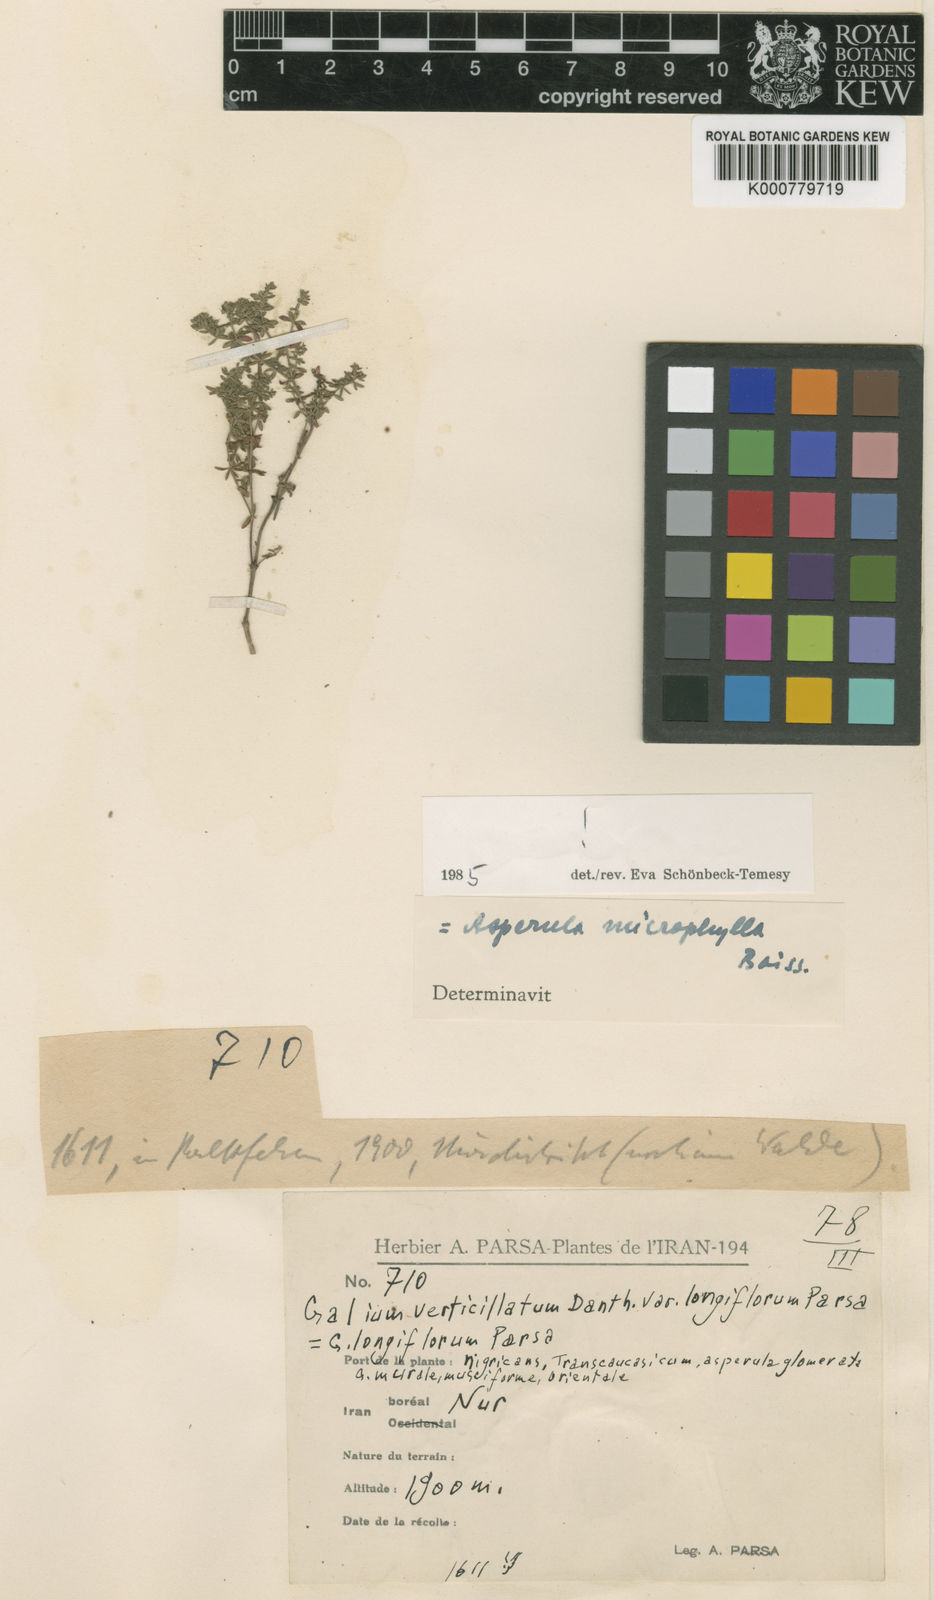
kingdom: Plantae
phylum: Tracheophyta
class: Magnoliopsida
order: Gentianales
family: Rubiaceae
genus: Thliphthisa
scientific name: Thliphthisa microphylla
